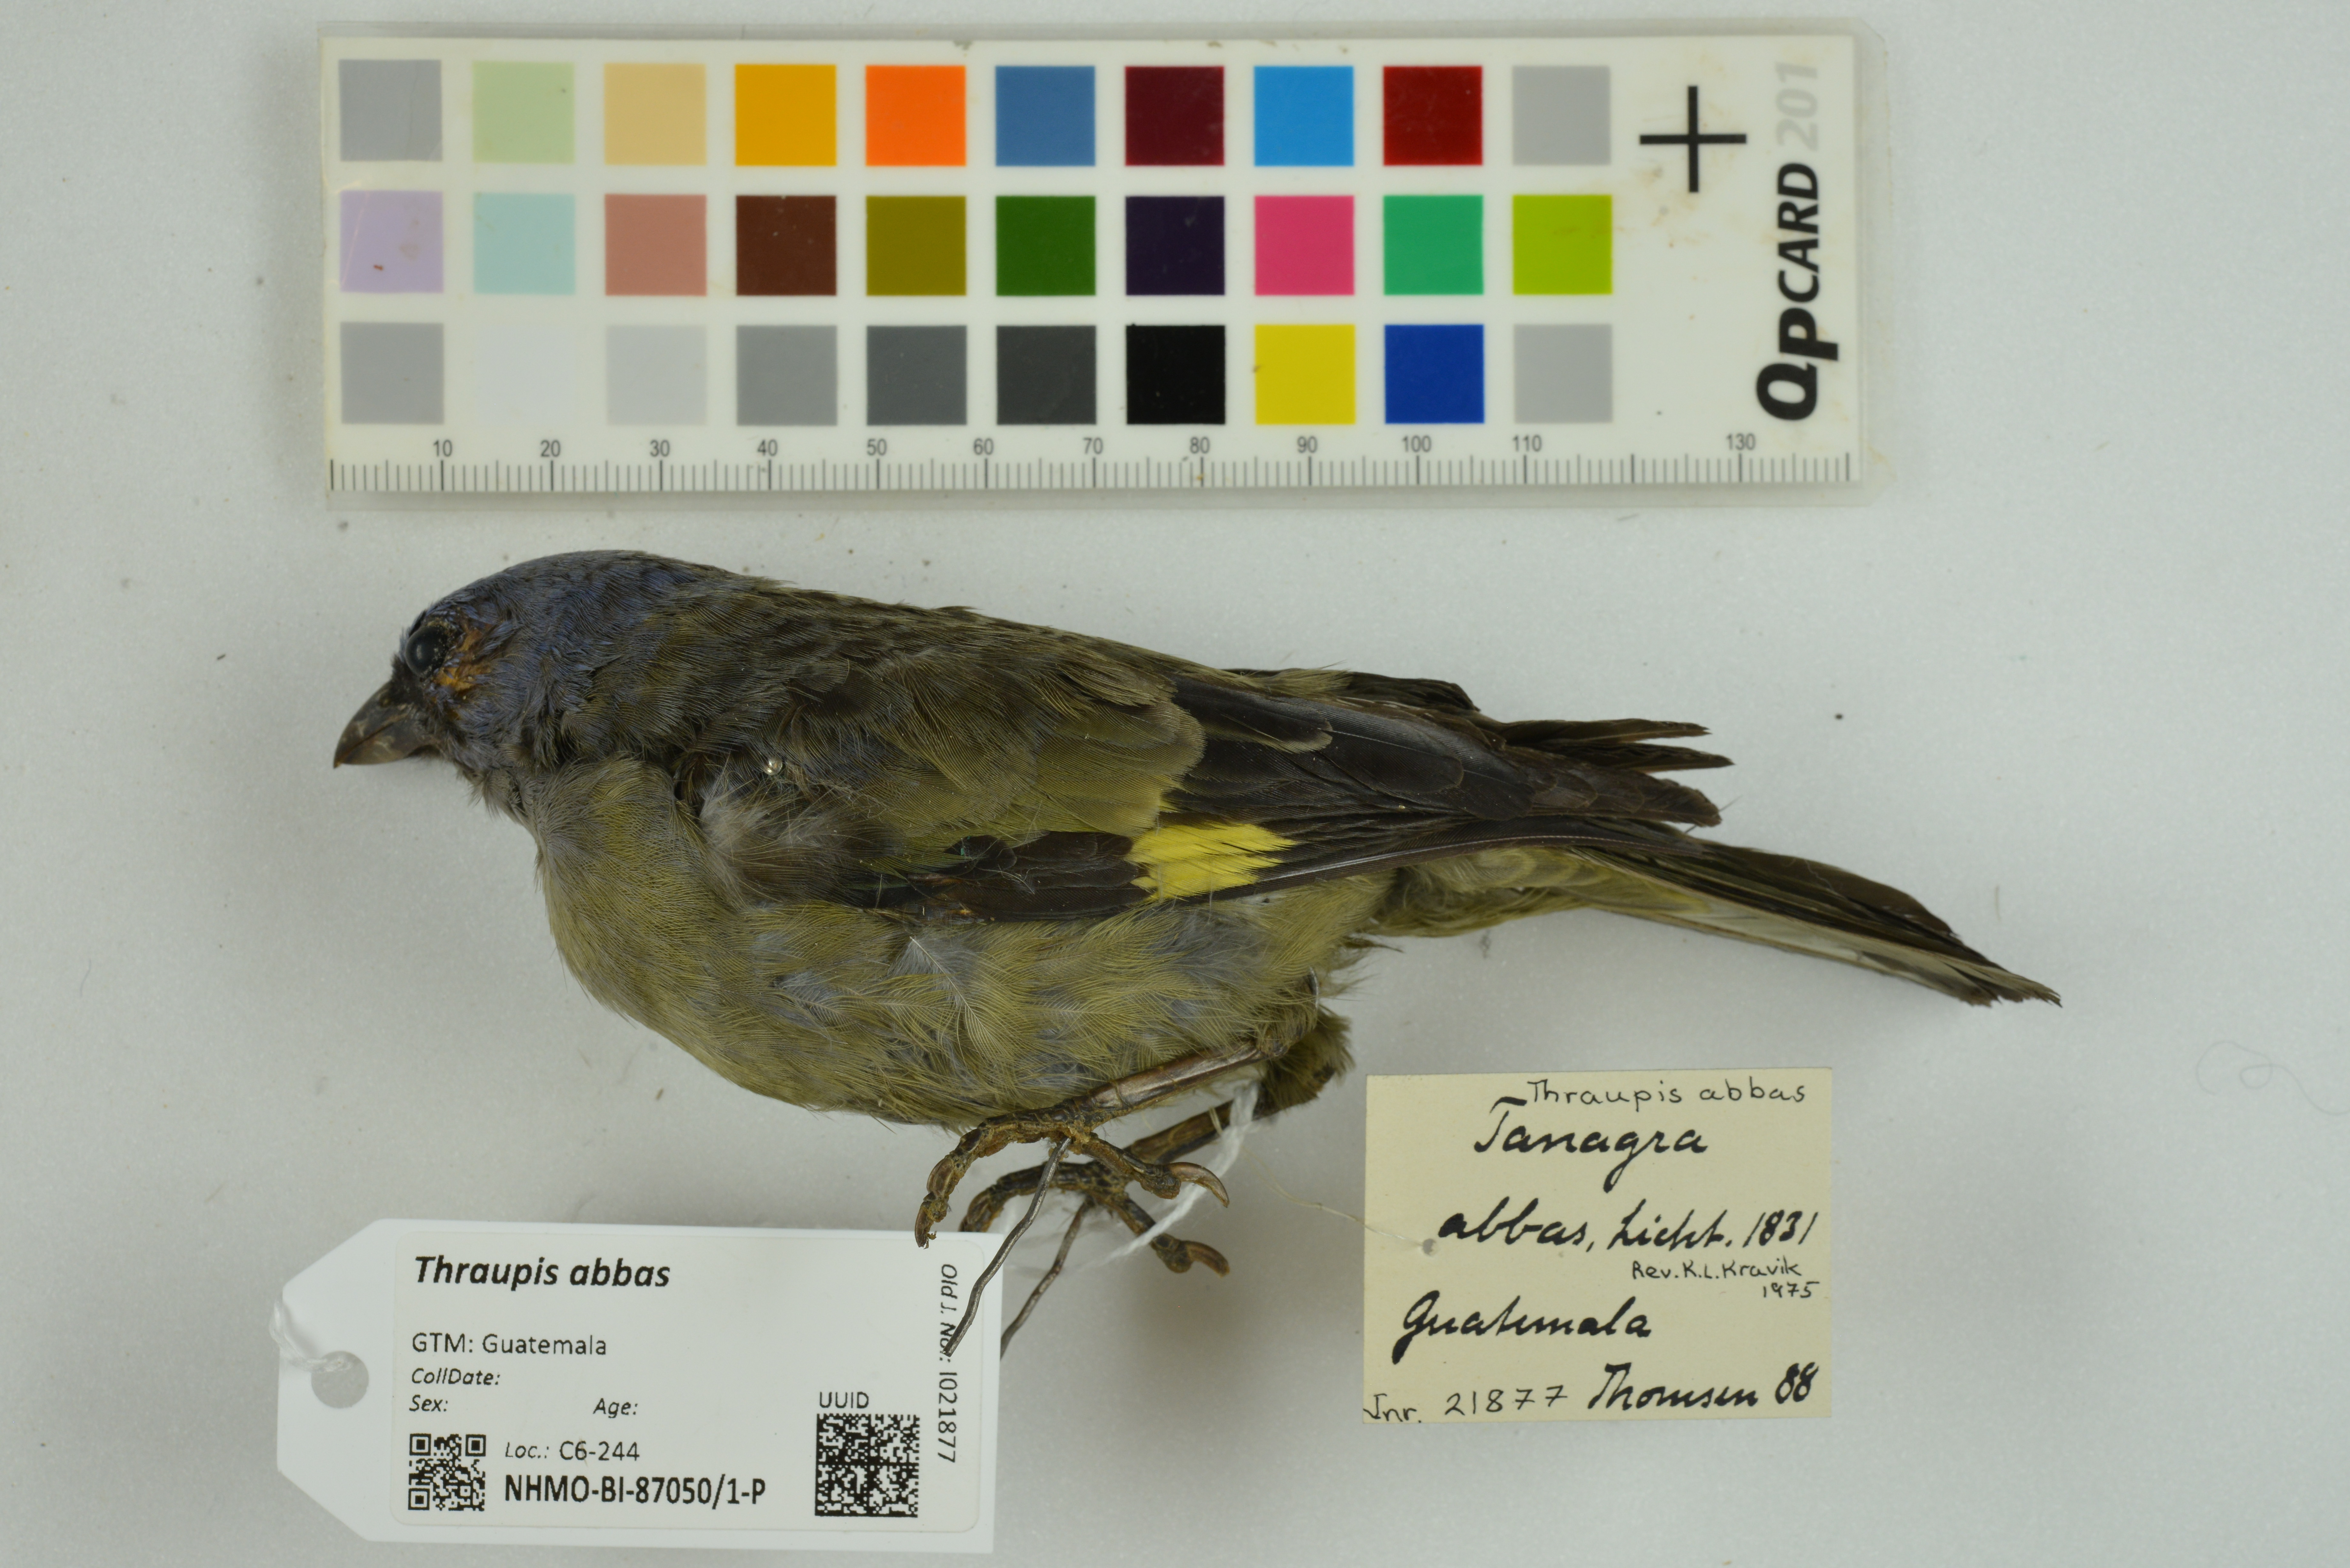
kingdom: Animalia
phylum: Chordata
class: Aves
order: Passeriformes
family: Thraupidae
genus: Thraupis
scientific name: Thraupis abbas
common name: Yellow-winged tanager
